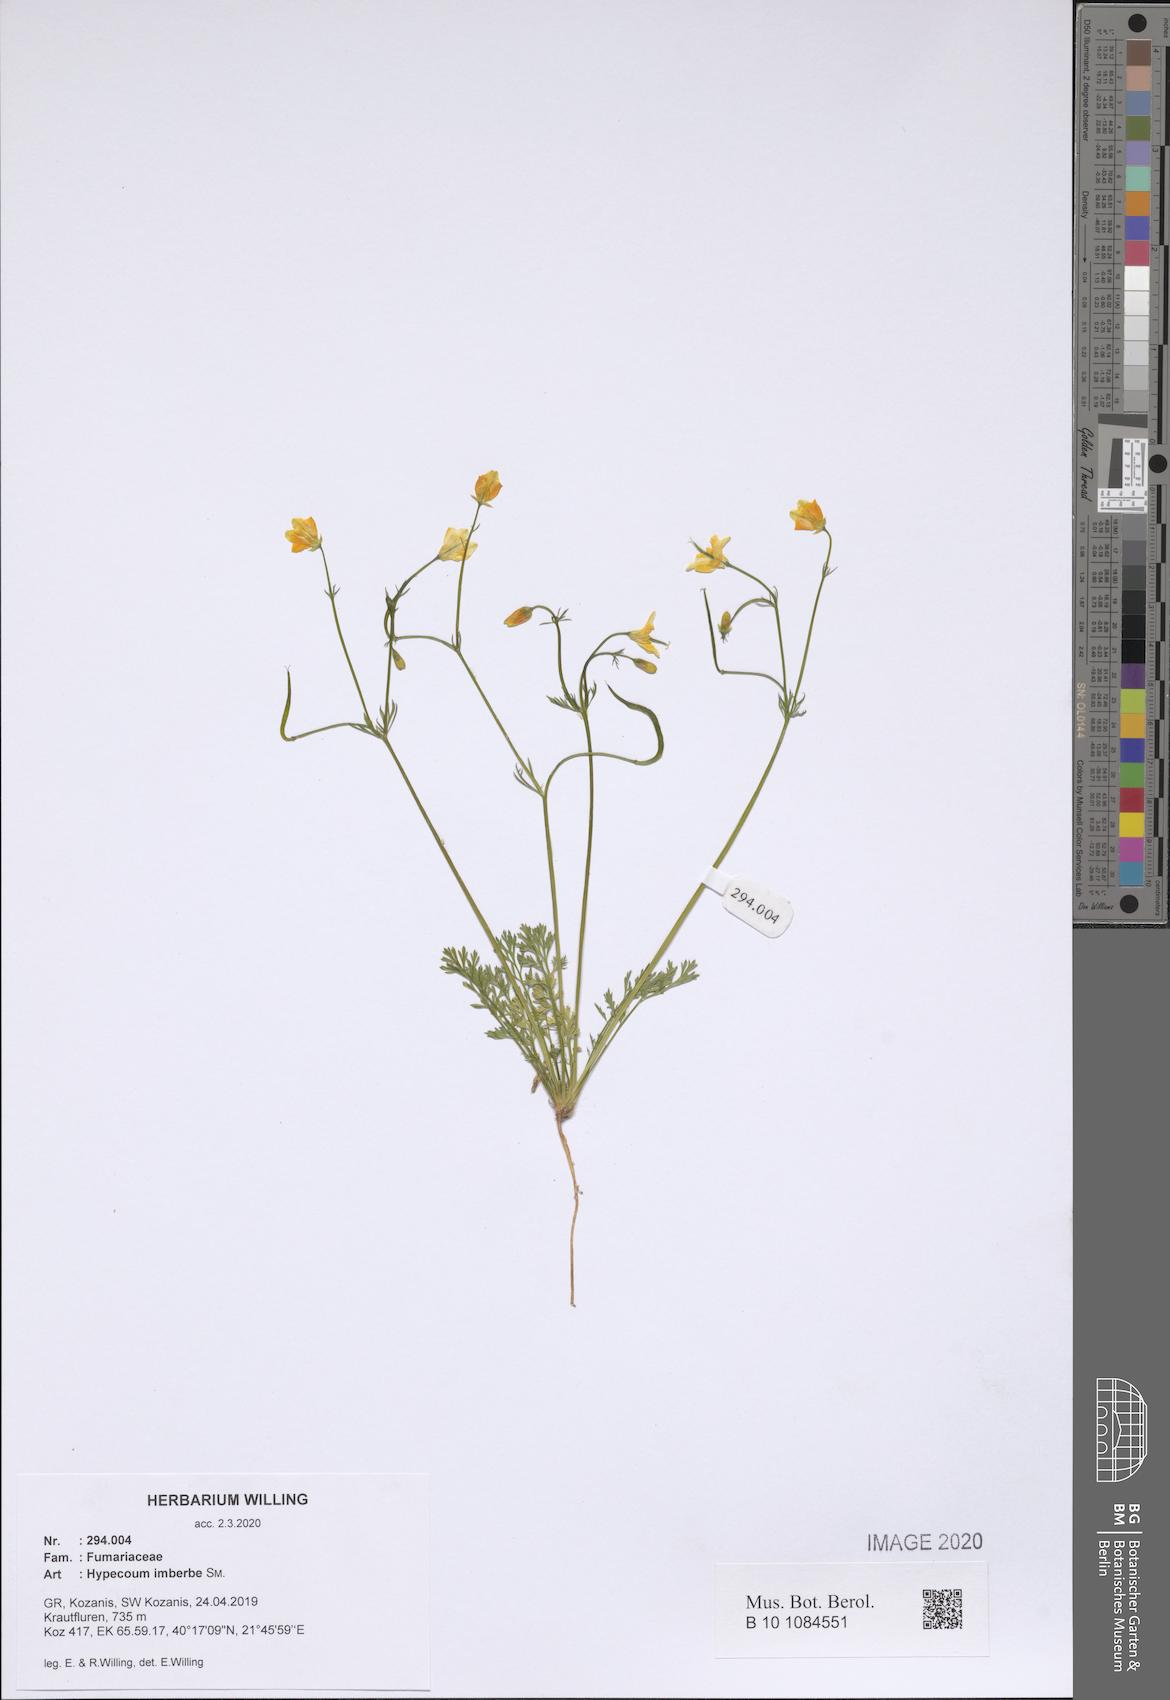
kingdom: Plantae
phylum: Tracheophyta
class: Magnoliopsida
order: Ranunculales
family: Papaveraceae
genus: Hypecoum
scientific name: Hypecoum imberbe
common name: Sicklefruit hypecoum
